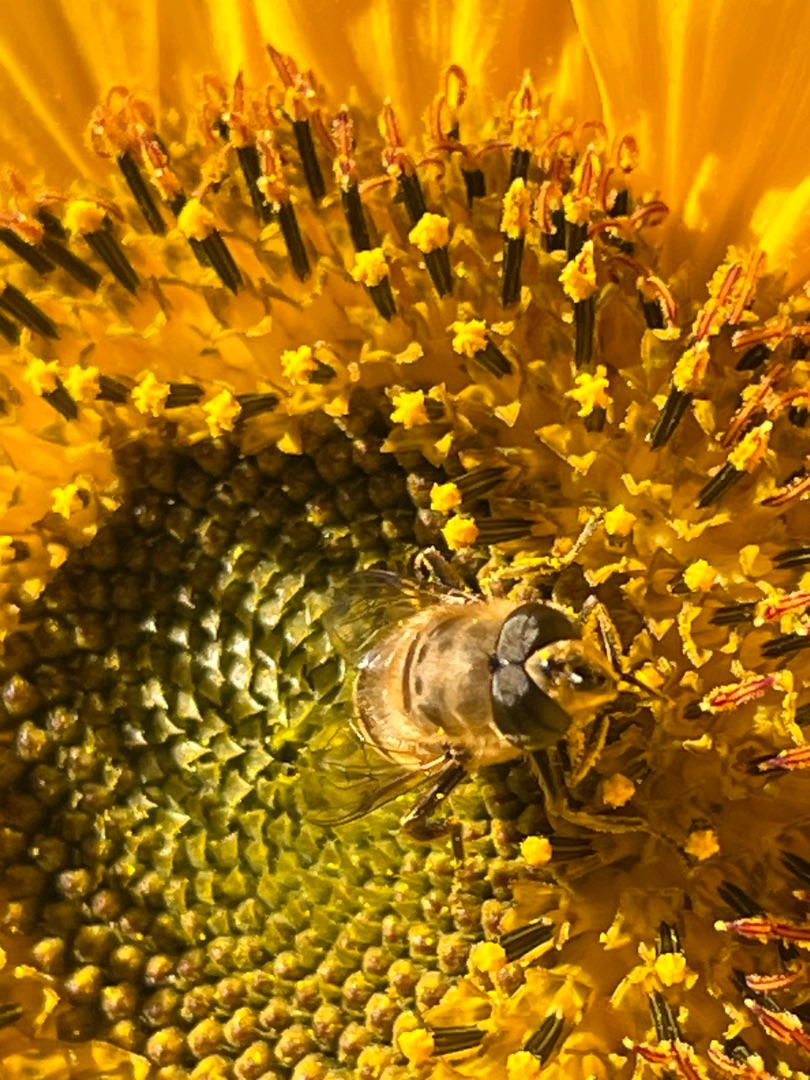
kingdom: Animalia
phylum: Arthropoda
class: Insecta
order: Diptera
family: Syrphidae
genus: Eristalis
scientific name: Eristalis tenax
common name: Droneflue
